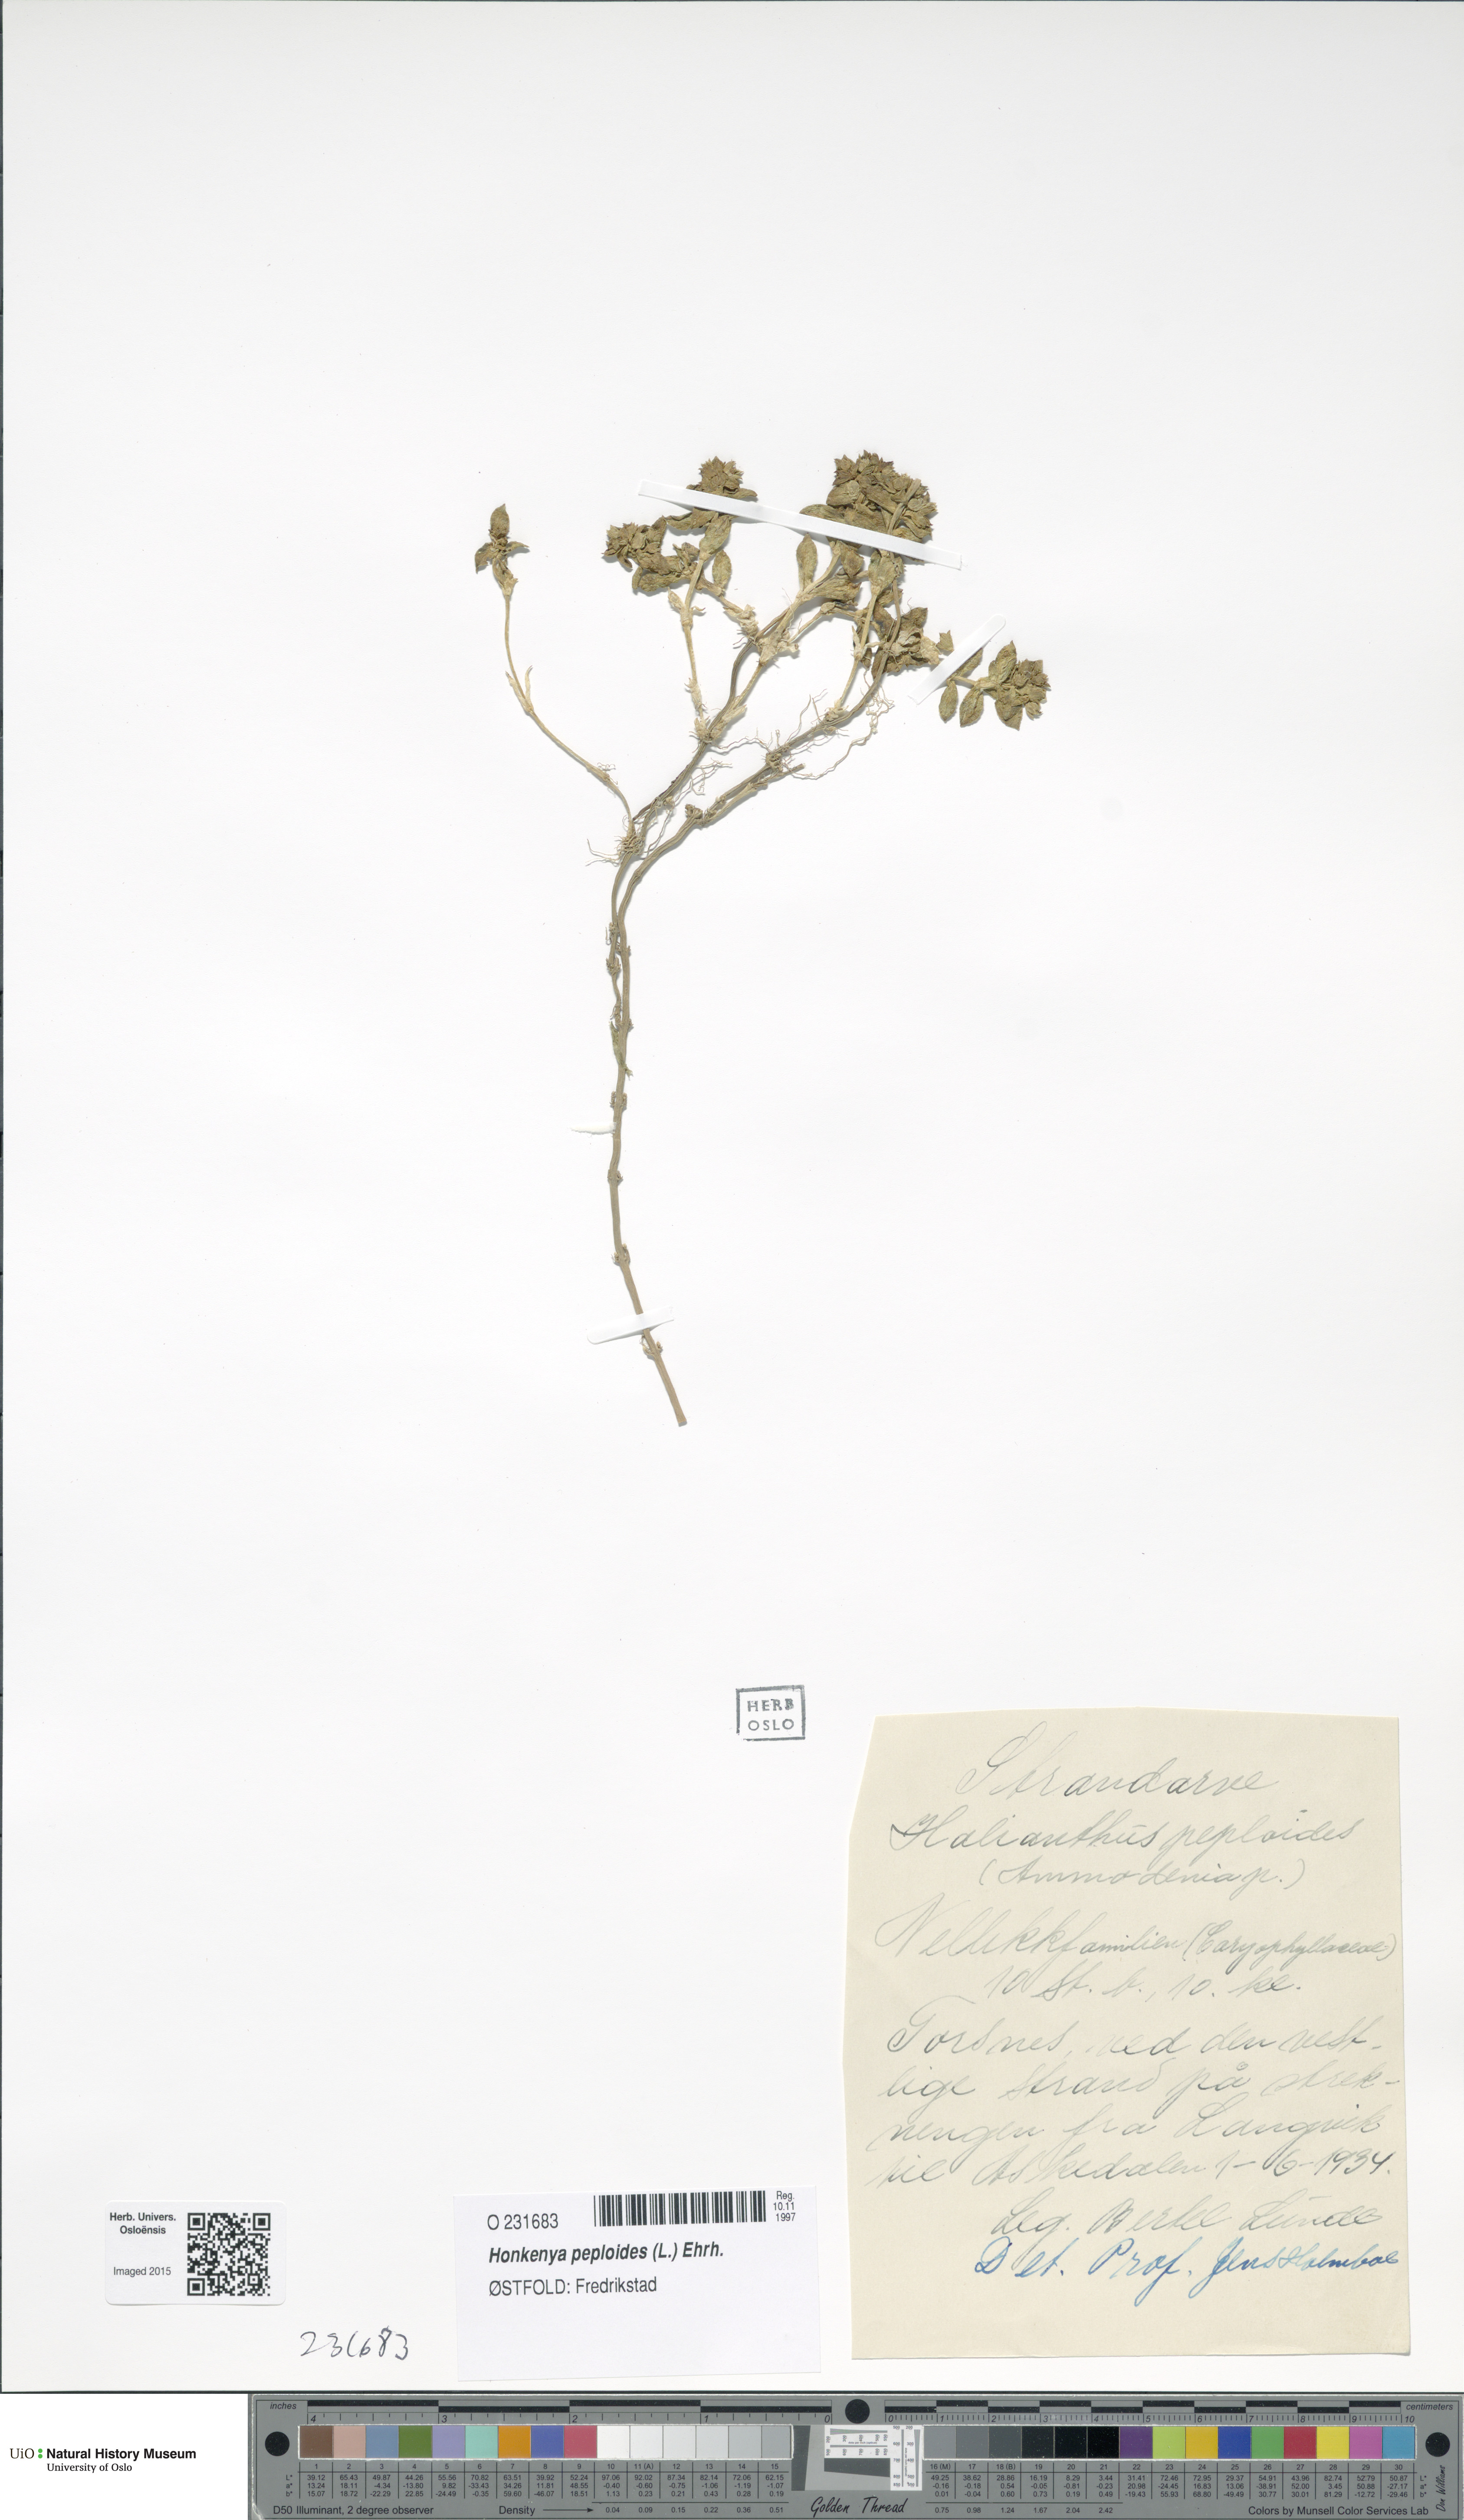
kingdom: Plantae
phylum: Tracheophyta
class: Magnoliopsida
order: Caryophyllales
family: Caryophyllaceae
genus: Honckenya
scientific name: Honckenya peploides
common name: Sea sandwort
